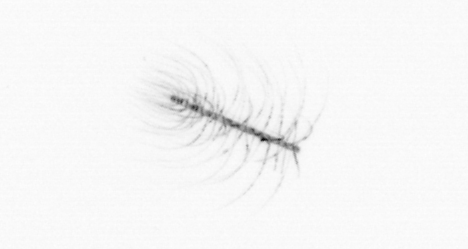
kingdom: Chromista
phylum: Ochrophyta
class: Bacillariophyceae
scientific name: Bacillariophyceae
